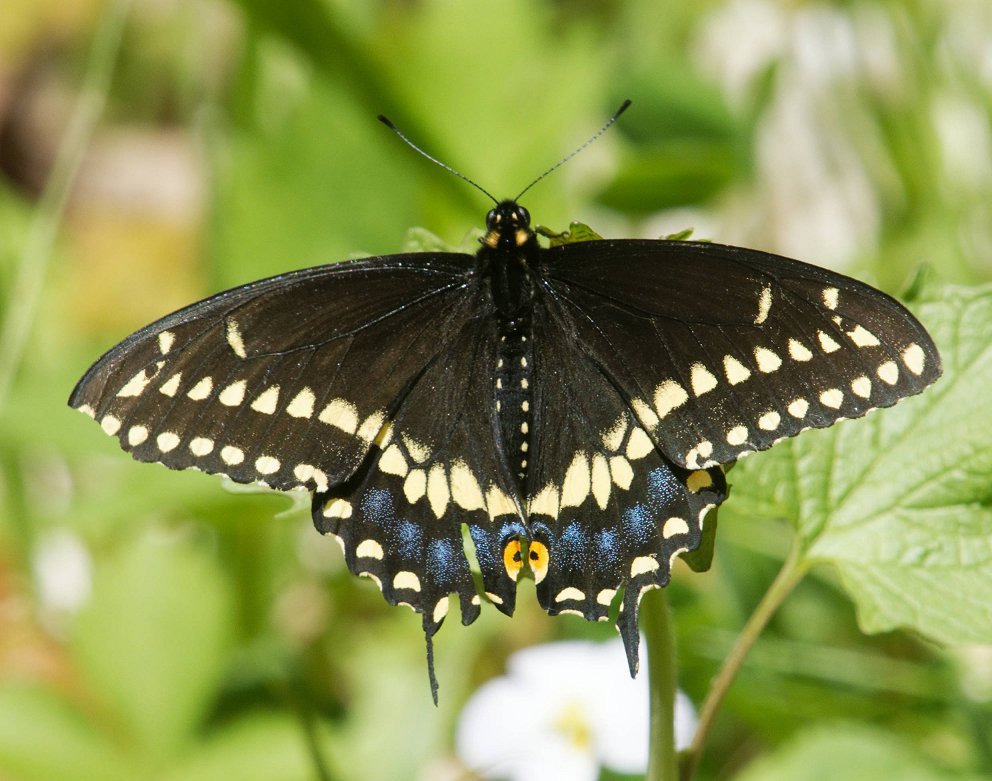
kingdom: Animalia
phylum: Arthropoda
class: Insecta
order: Lepidoptera
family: Papilionidae
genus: Papilio
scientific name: Papilio polyxenes
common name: Black Swallowtail
